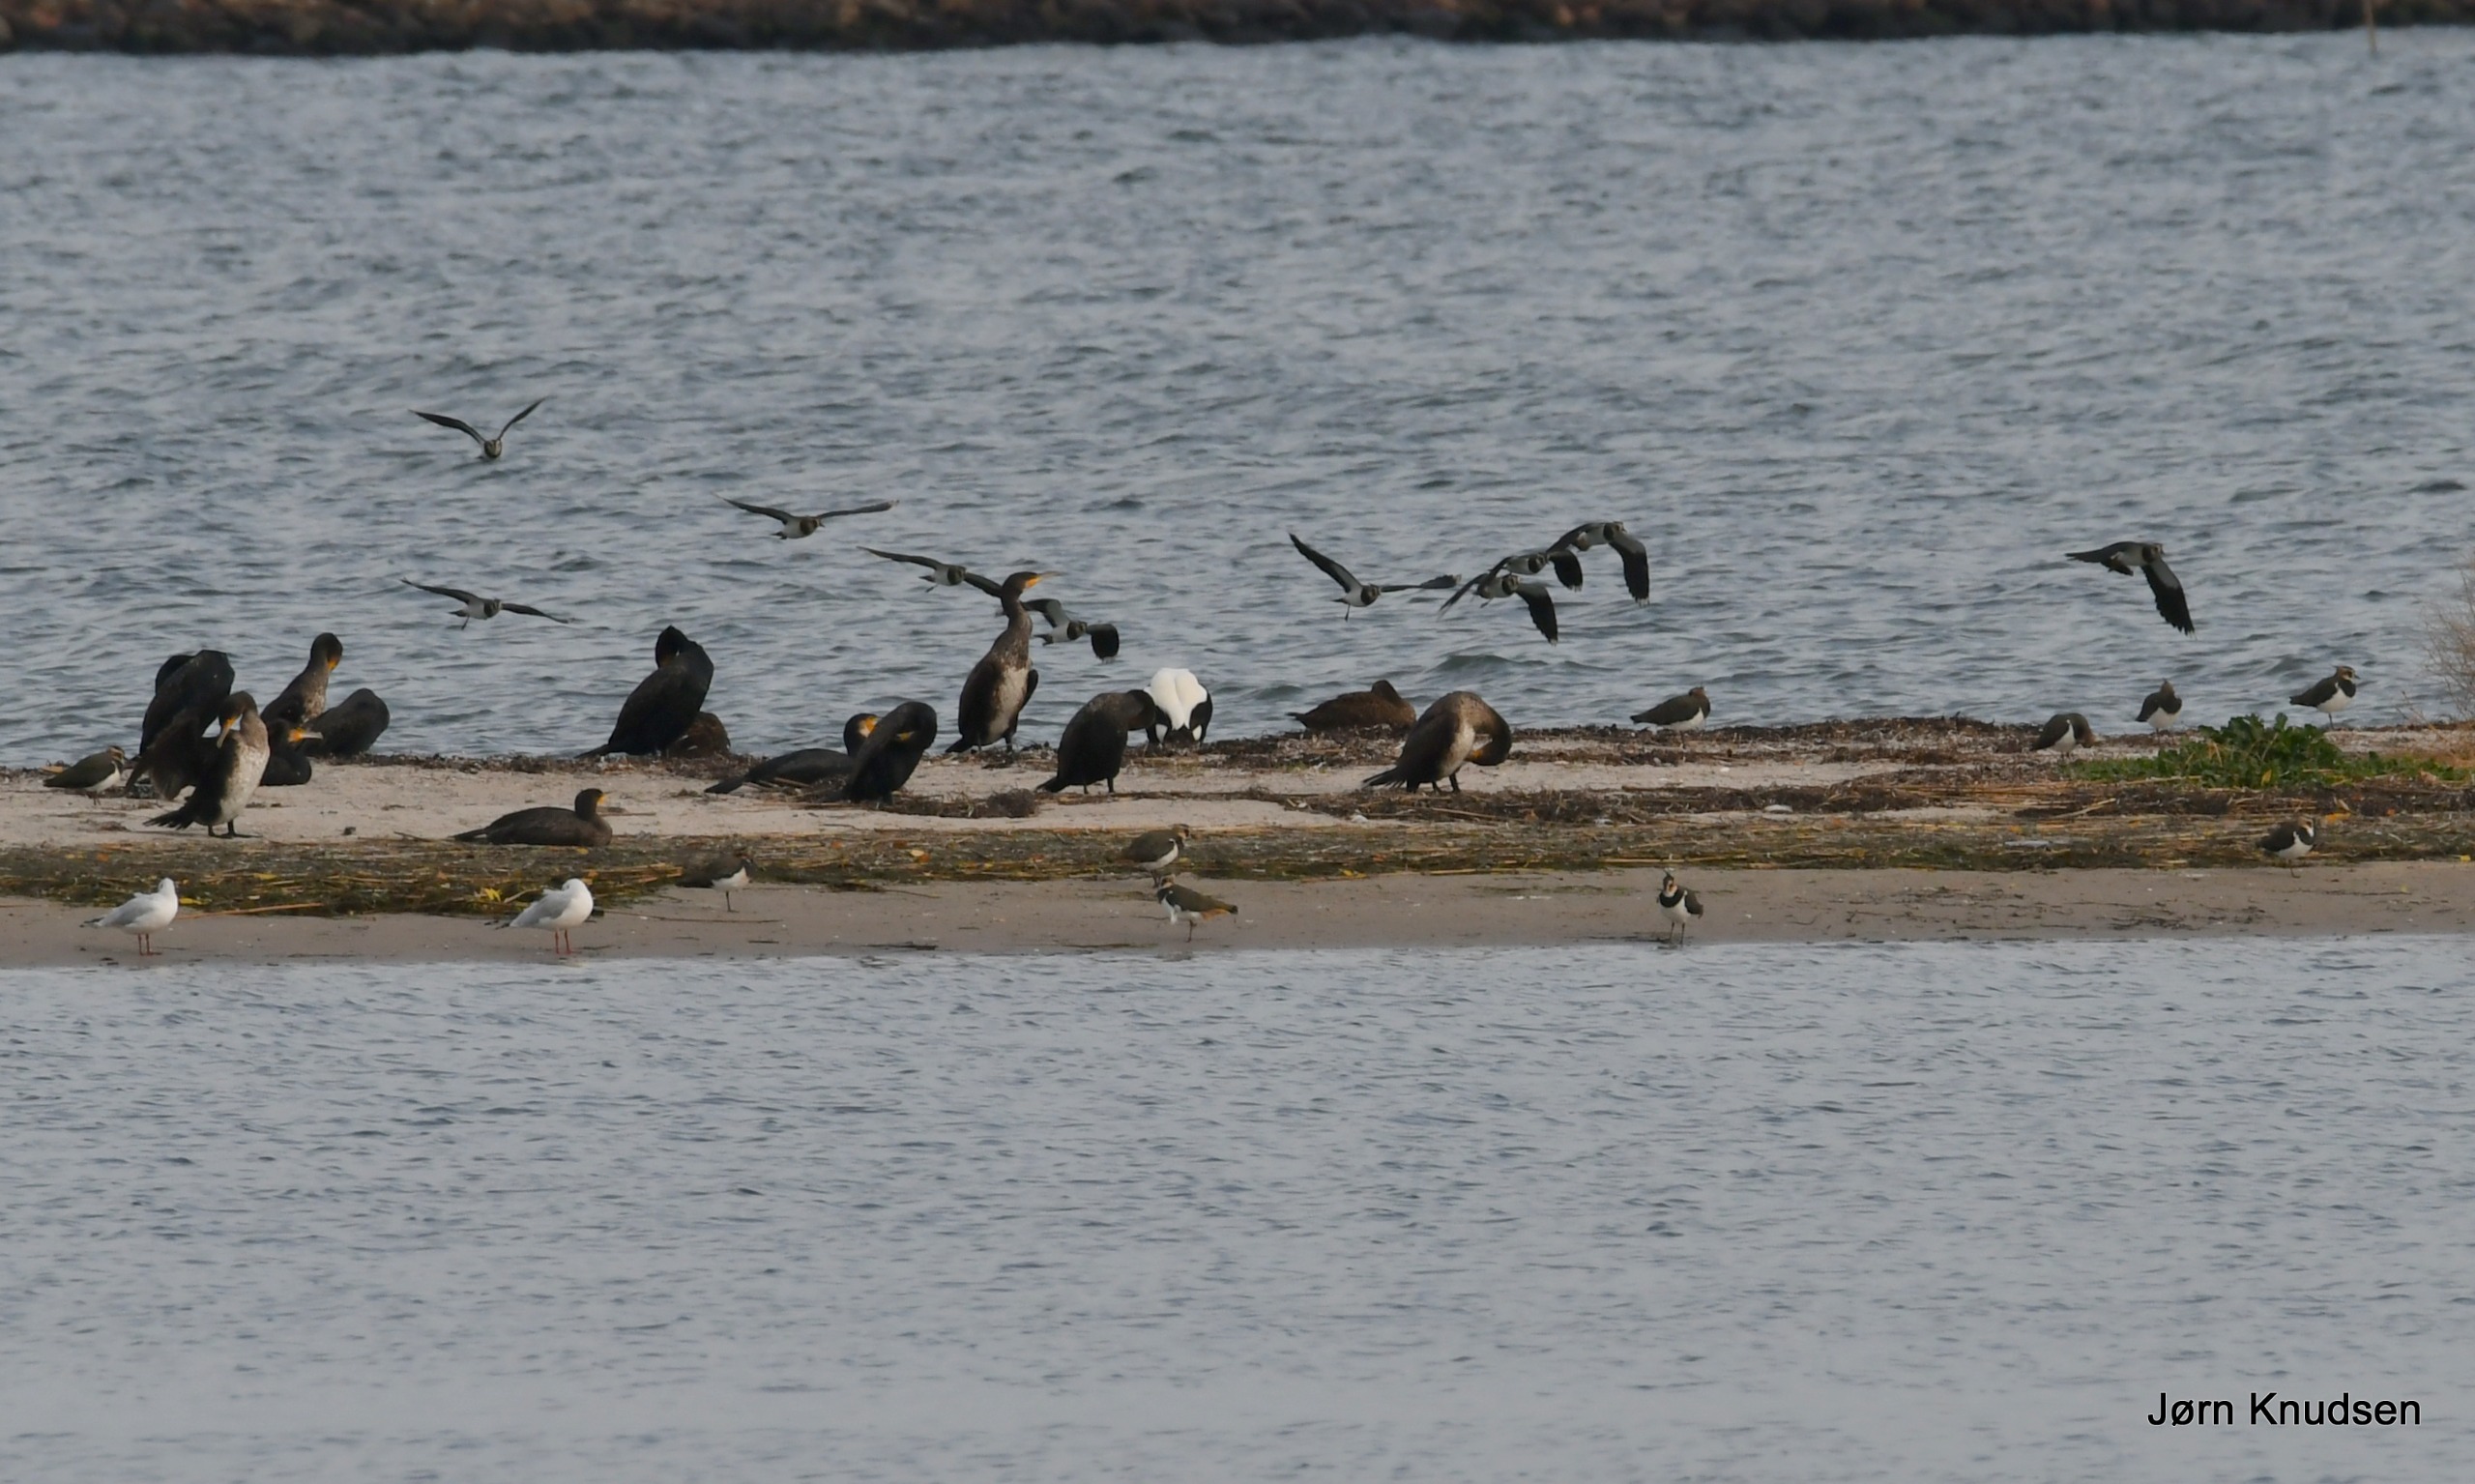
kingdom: Animalia
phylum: Chordata
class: Aves
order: Suliformes
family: Phalacrocoracidae
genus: Phalacrocorax
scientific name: Phalacrocorax carbo
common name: Skarv
